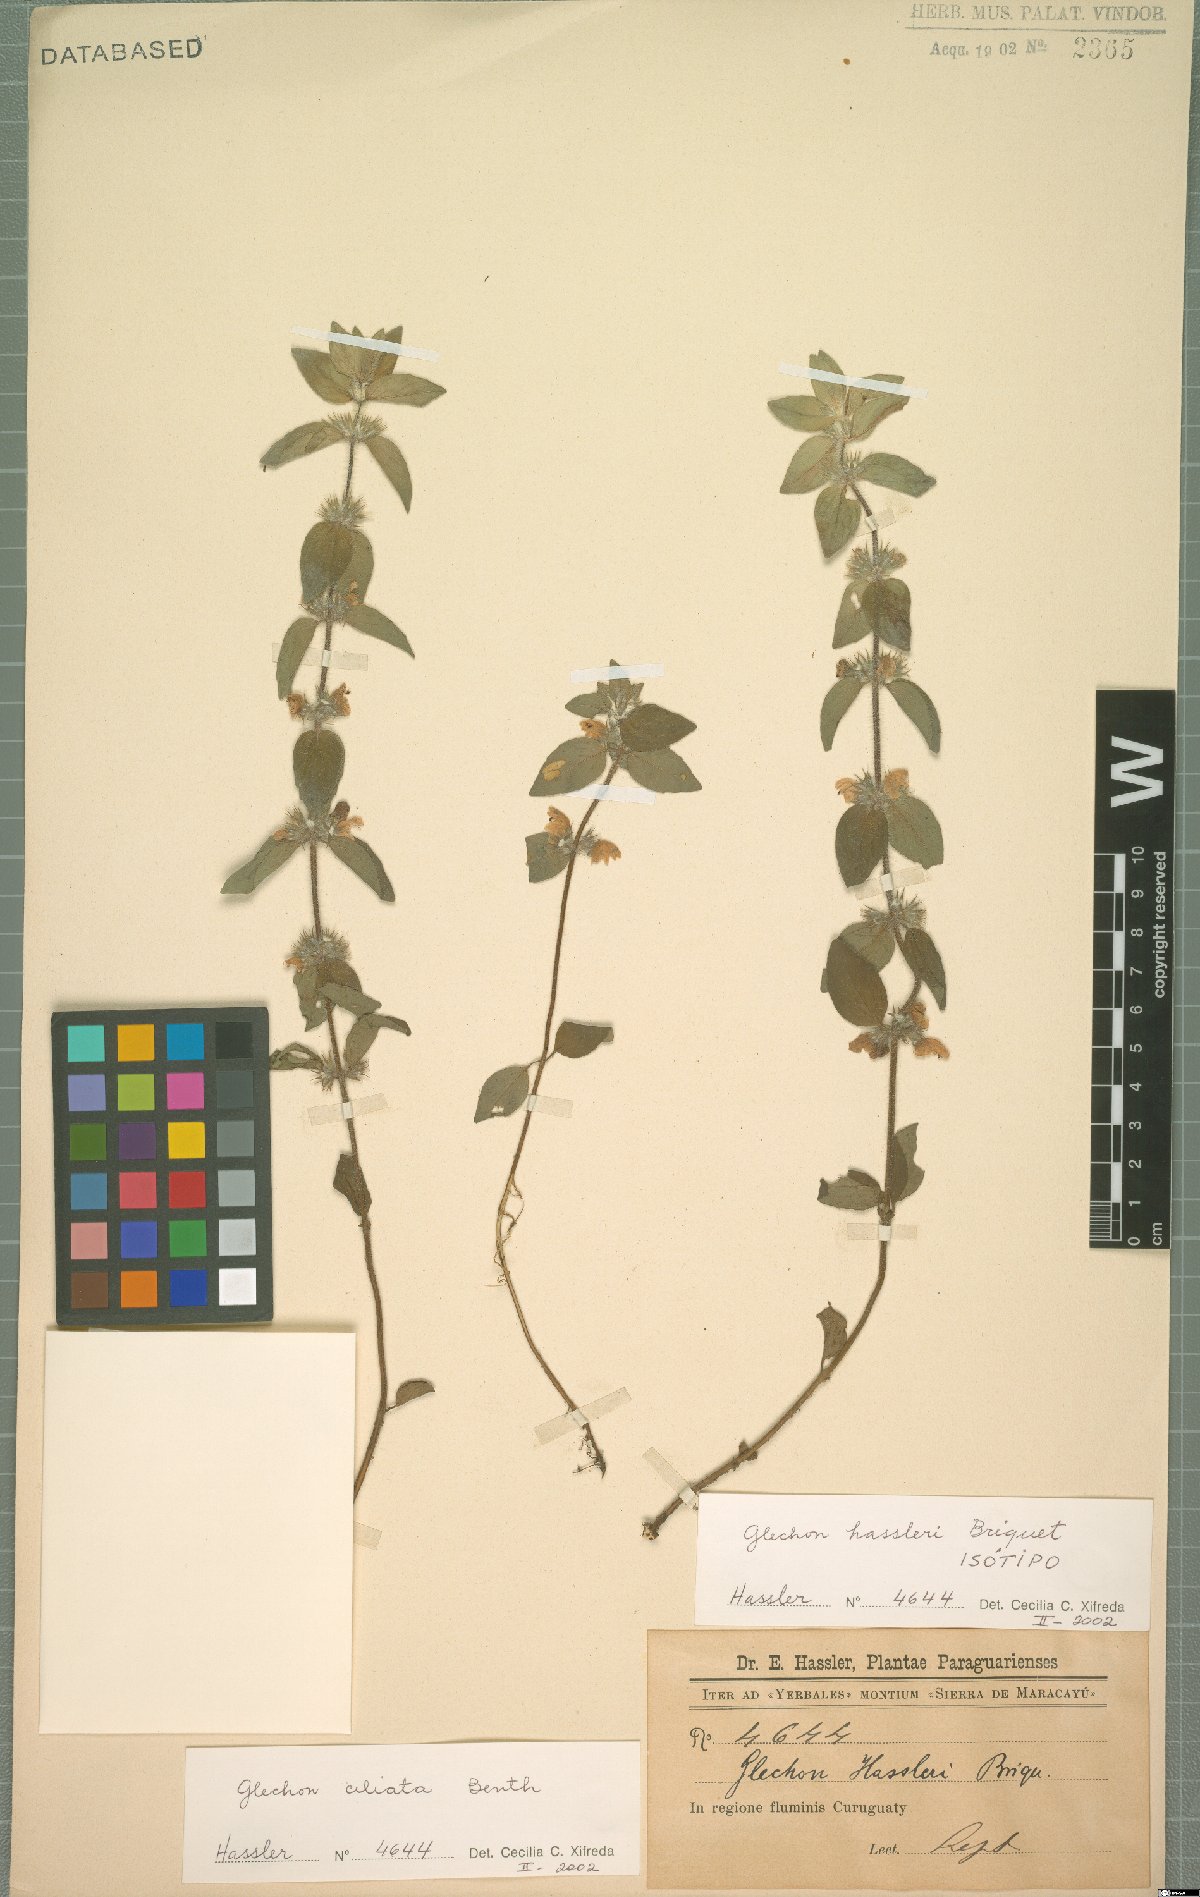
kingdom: Plantae
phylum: Tracheophyta
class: Magnoliopsida
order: Lamiales
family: Lamiaceae
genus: Glechon
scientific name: Glechon ciliata
